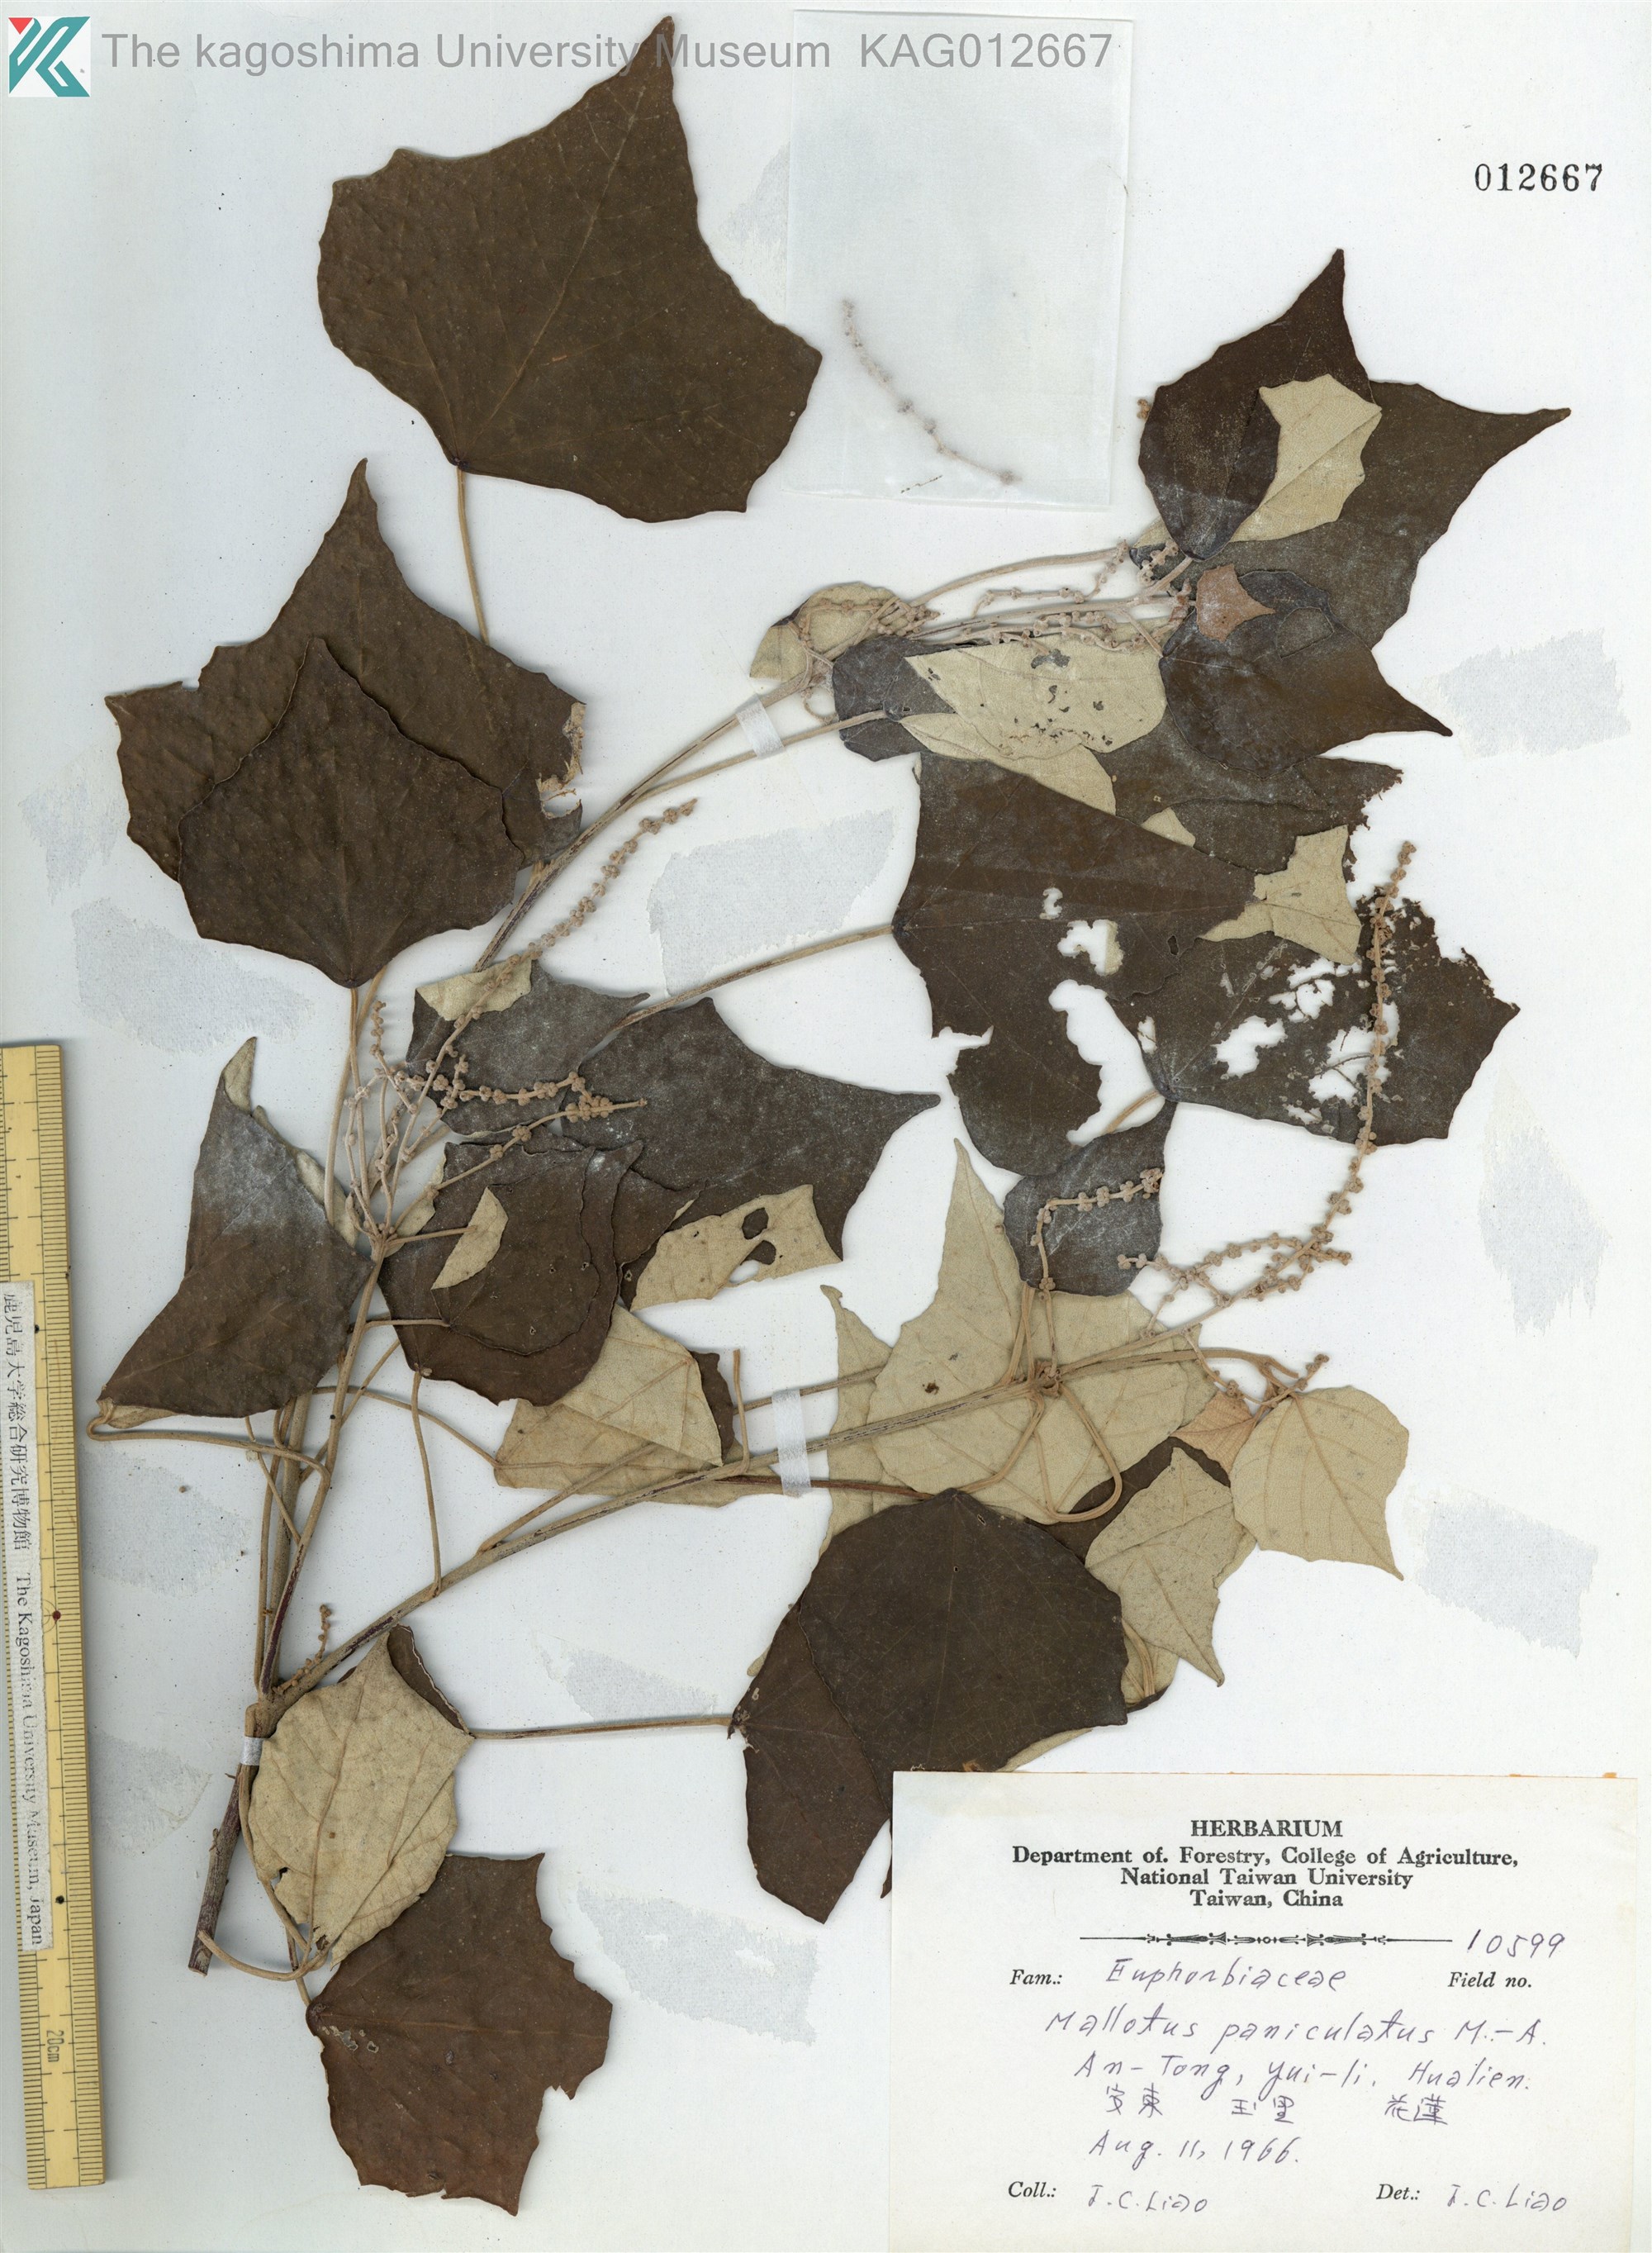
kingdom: Plantae
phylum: Tracheophyta
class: Magnoliopsida
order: Malpighiales
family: Euphorbiaceae
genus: Mallotus
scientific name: Mallotus paniculatus
